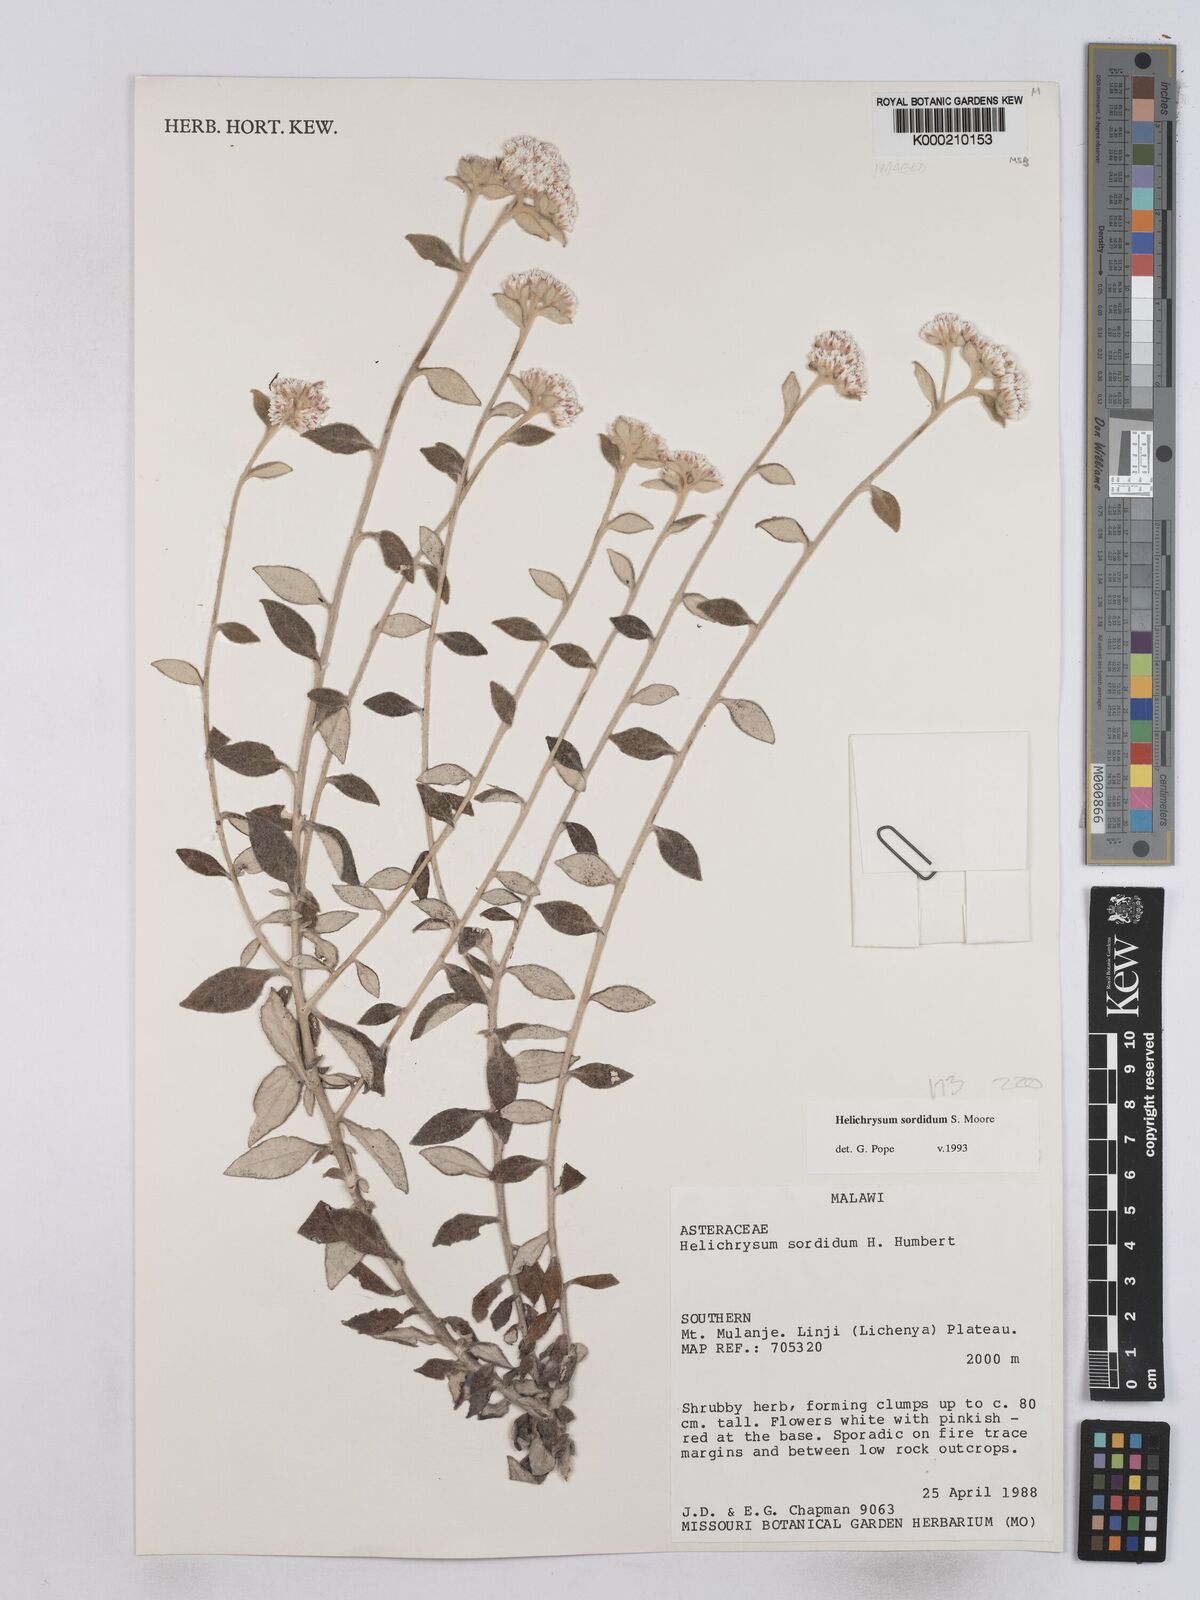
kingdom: Plantae
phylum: Tracheophyta
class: Magnoliopsida
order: Asterales
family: Asteraceae
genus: Helichrysum
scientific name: Helichrysum
